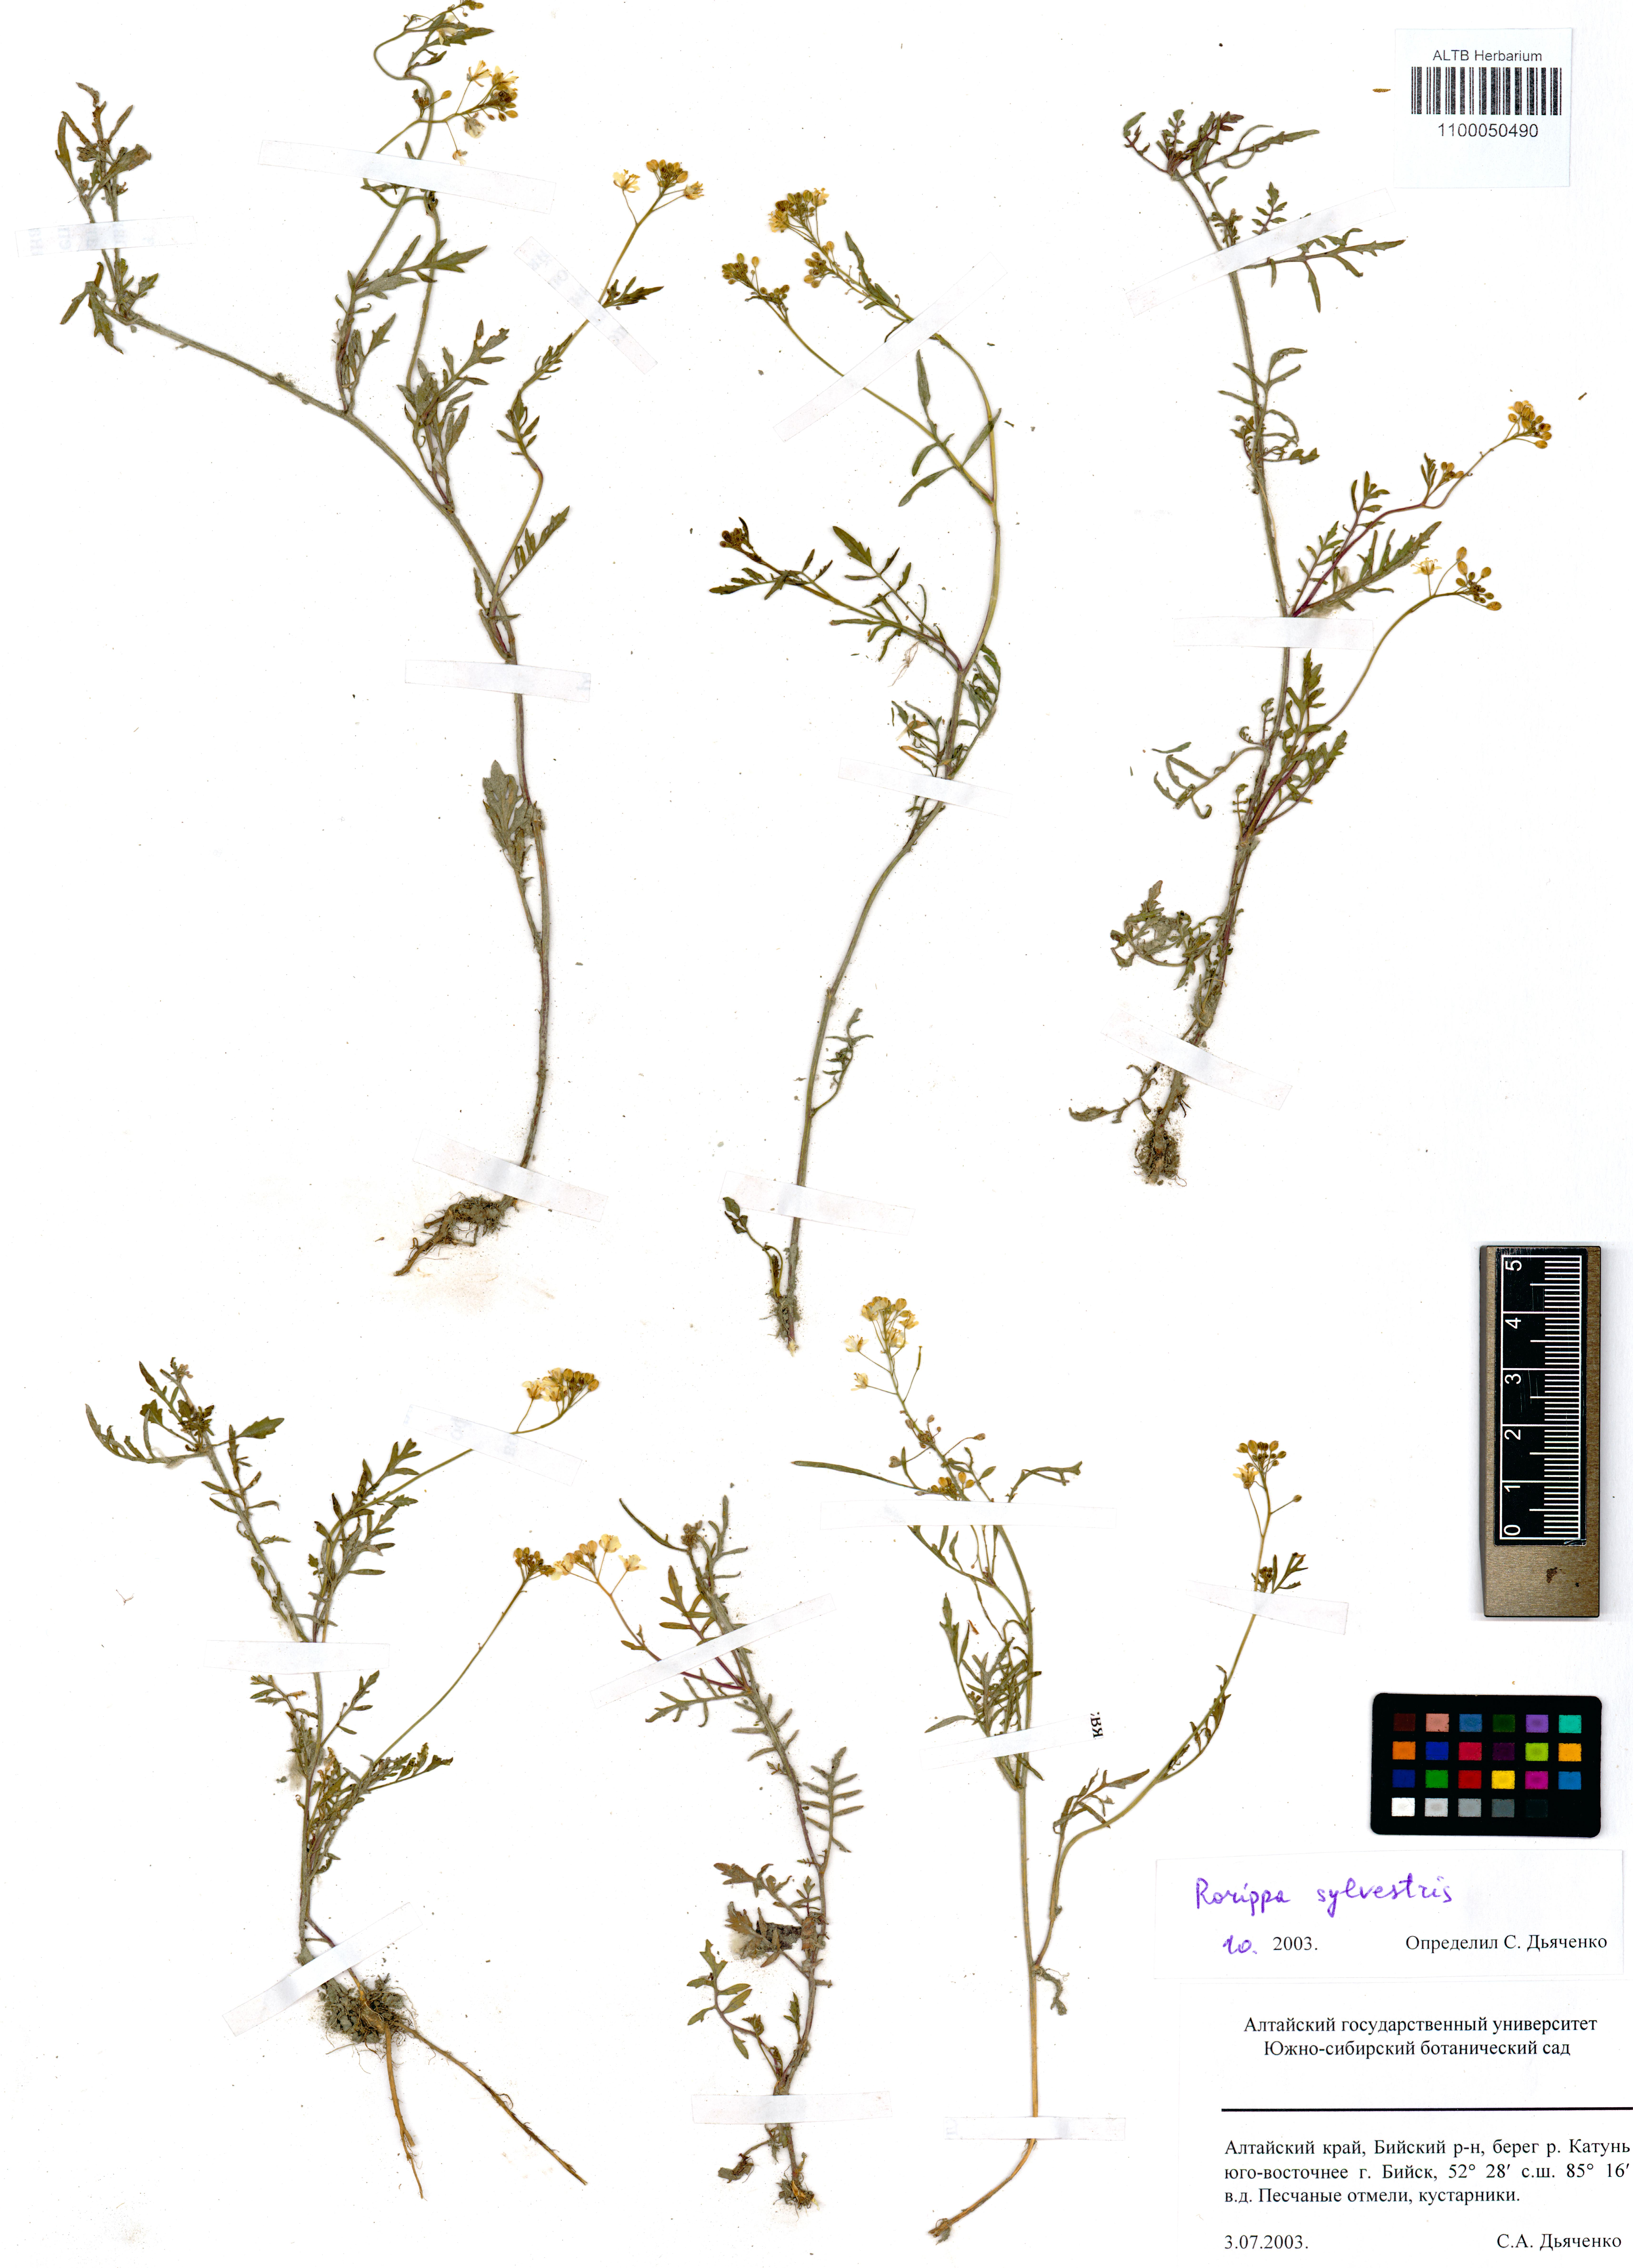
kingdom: Plantae
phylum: Tracheophyta
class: Magnoliopsida
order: Brassicales
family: Brassicaceae
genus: Rorippa
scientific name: Rorippa sylvestris
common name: Creeping yellowcress
